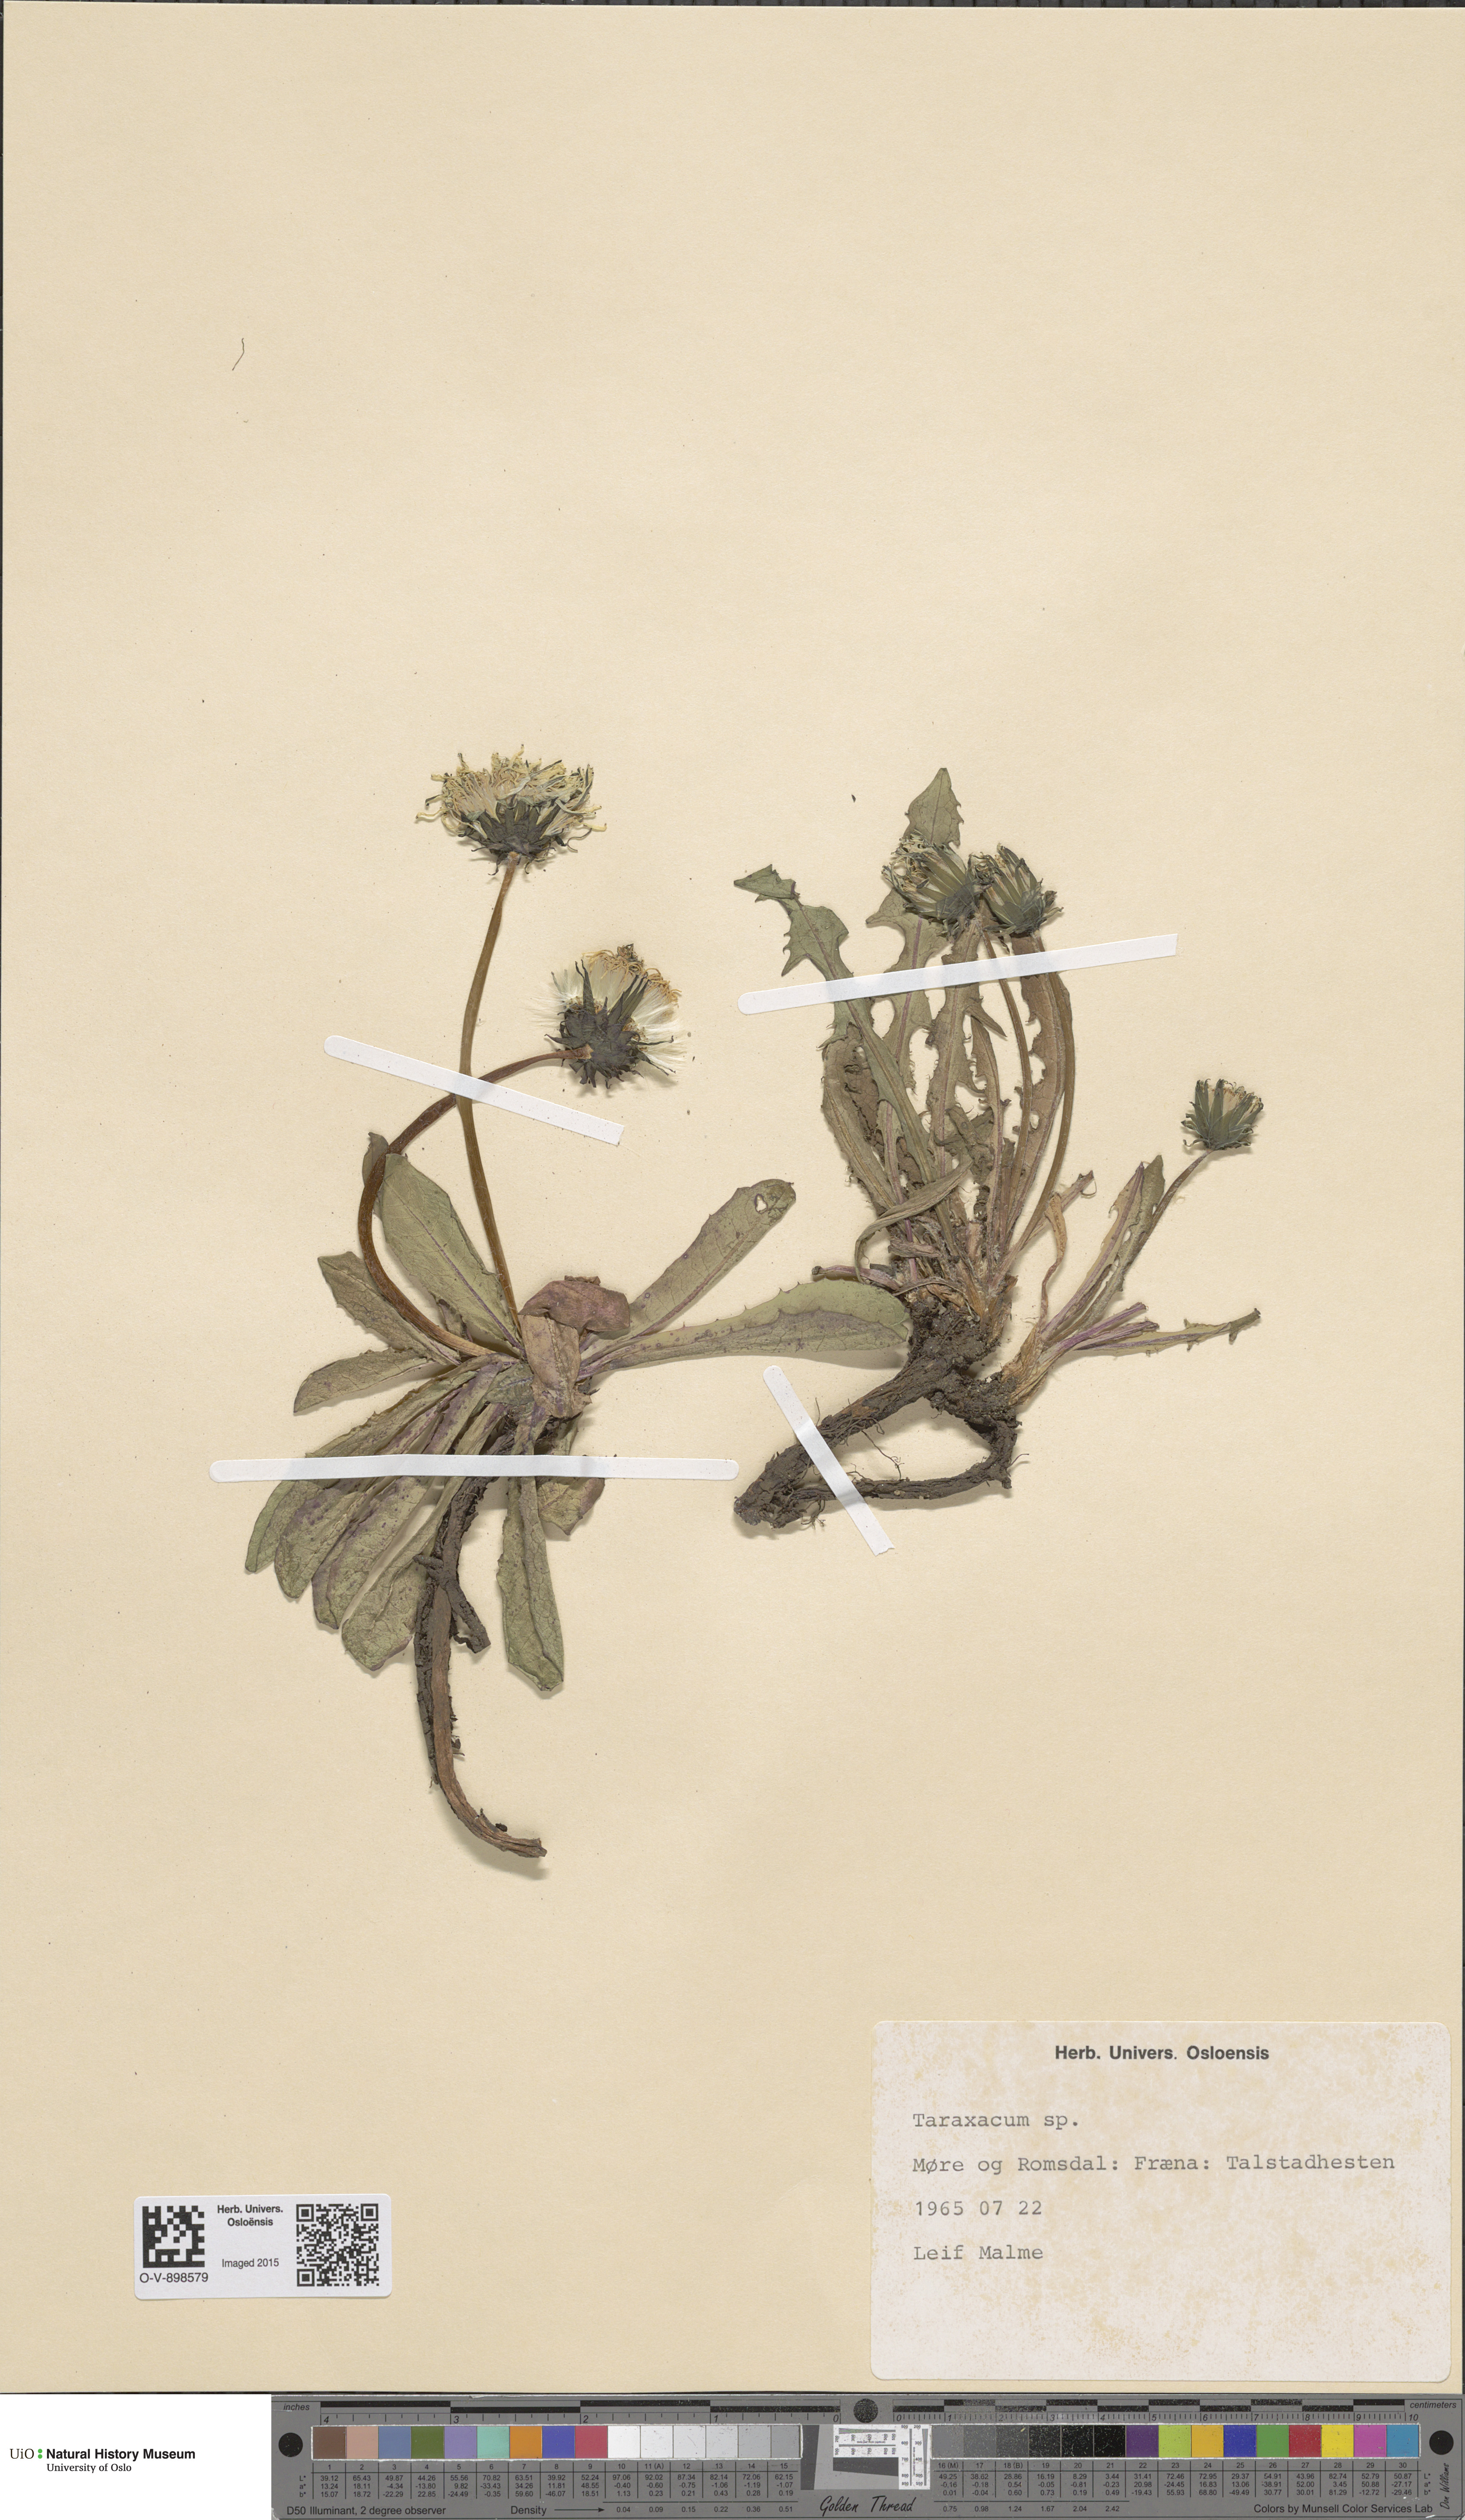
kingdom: Plantae
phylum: Tracheophyta
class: Magnoliopsida
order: Asterales
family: Asteraceae
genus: Taraxacum
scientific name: Taraxacum
